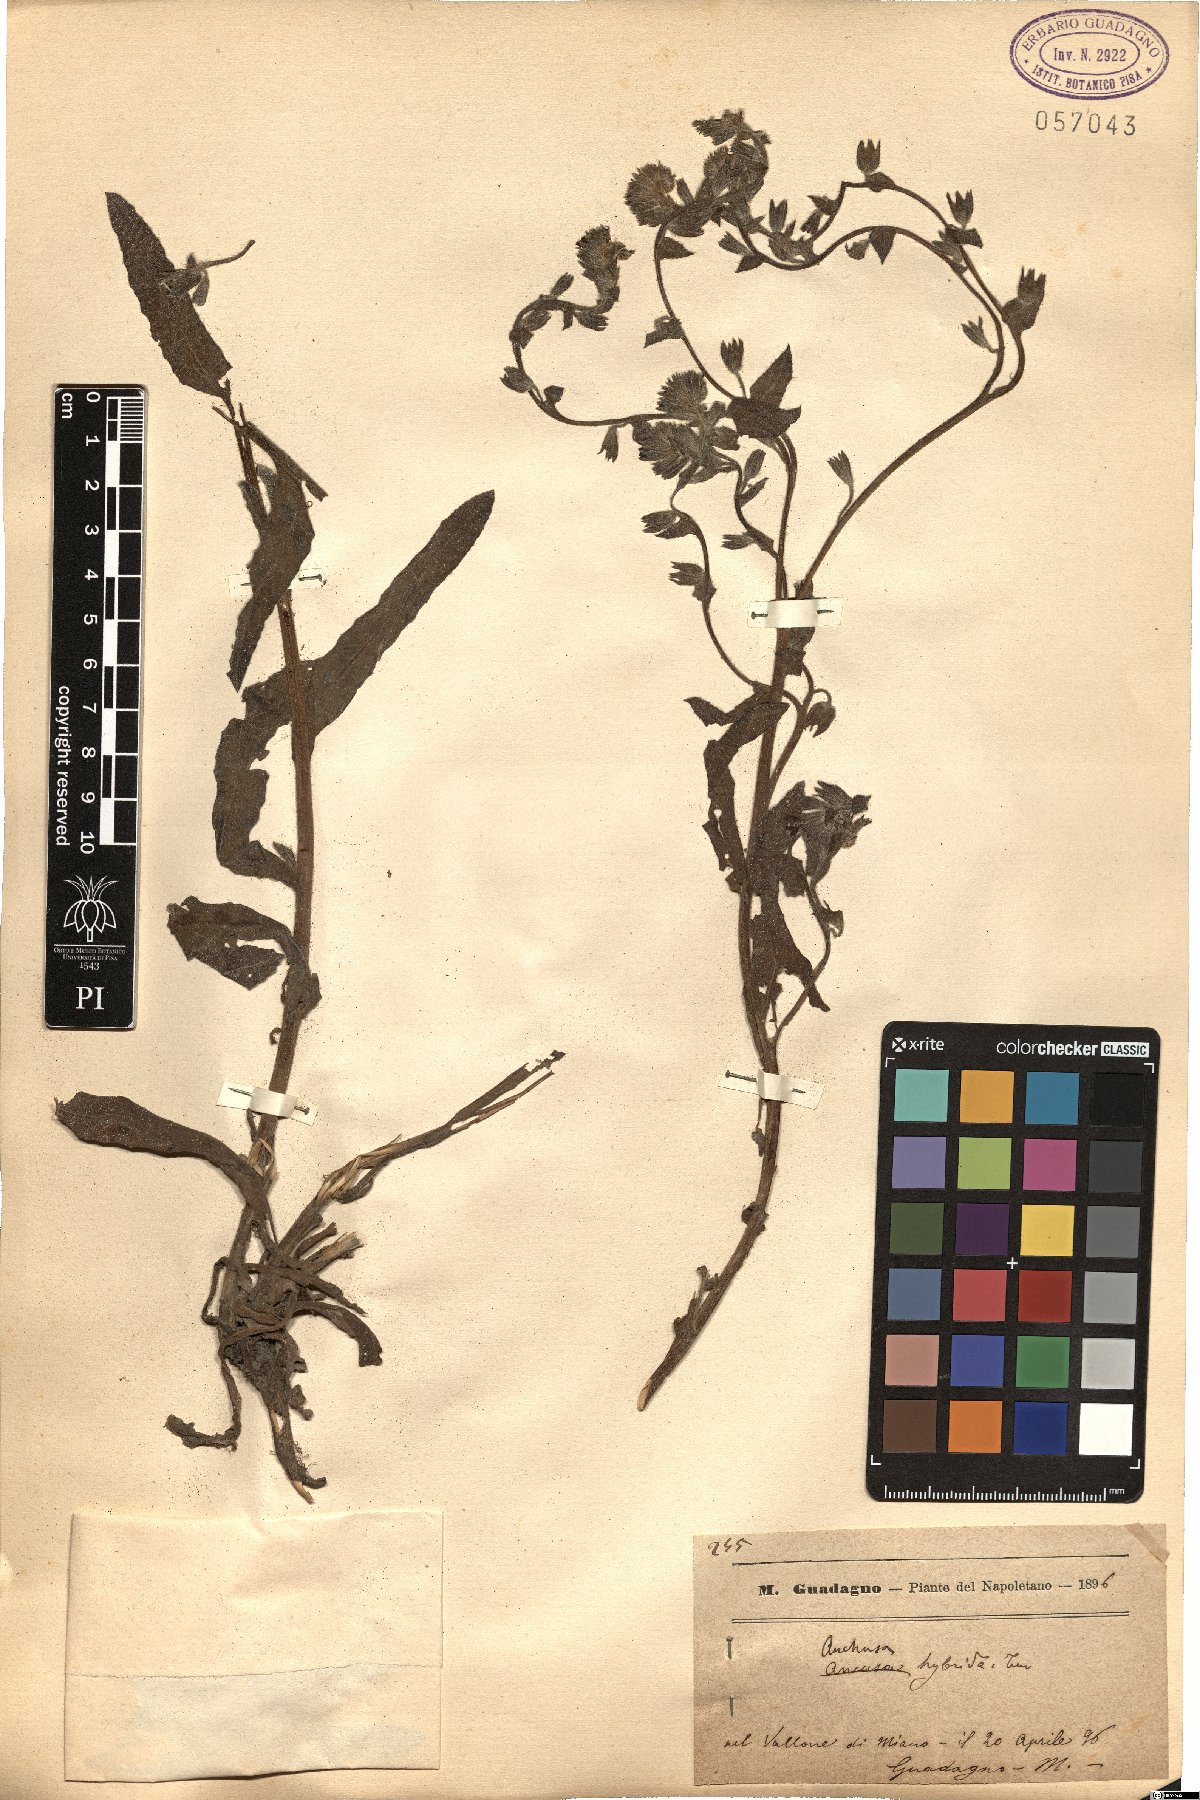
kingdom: Plantae
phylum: Tracheophyta
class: Magnoliopsida
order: Boraginales
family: Boraginaceae
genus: Anchusa
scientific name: Anchusa hybrida
